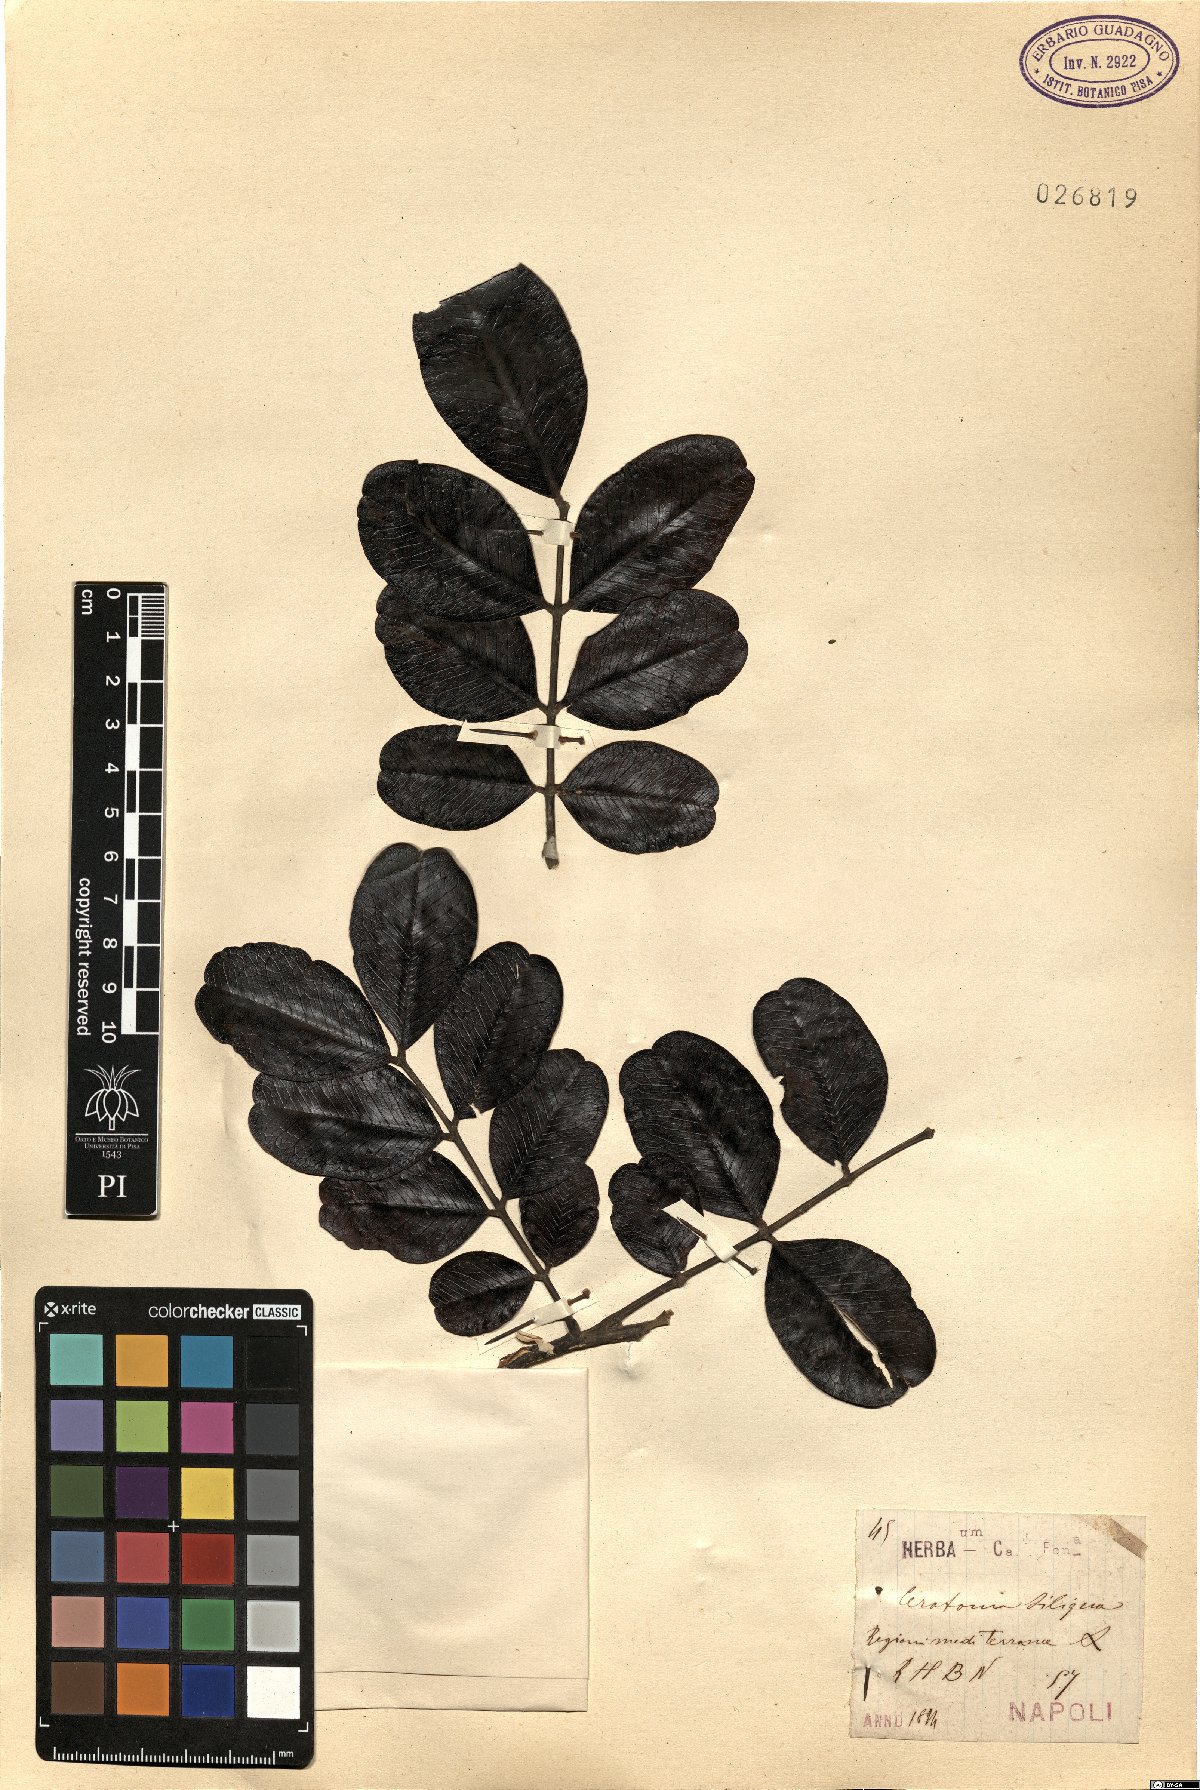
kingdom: Plantae
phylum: Tracheophyta
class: Magnoliopsida
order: Fabales
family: Fabaceae
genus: Ceratonia
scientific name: Ceratonia siliqua
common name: Carob
